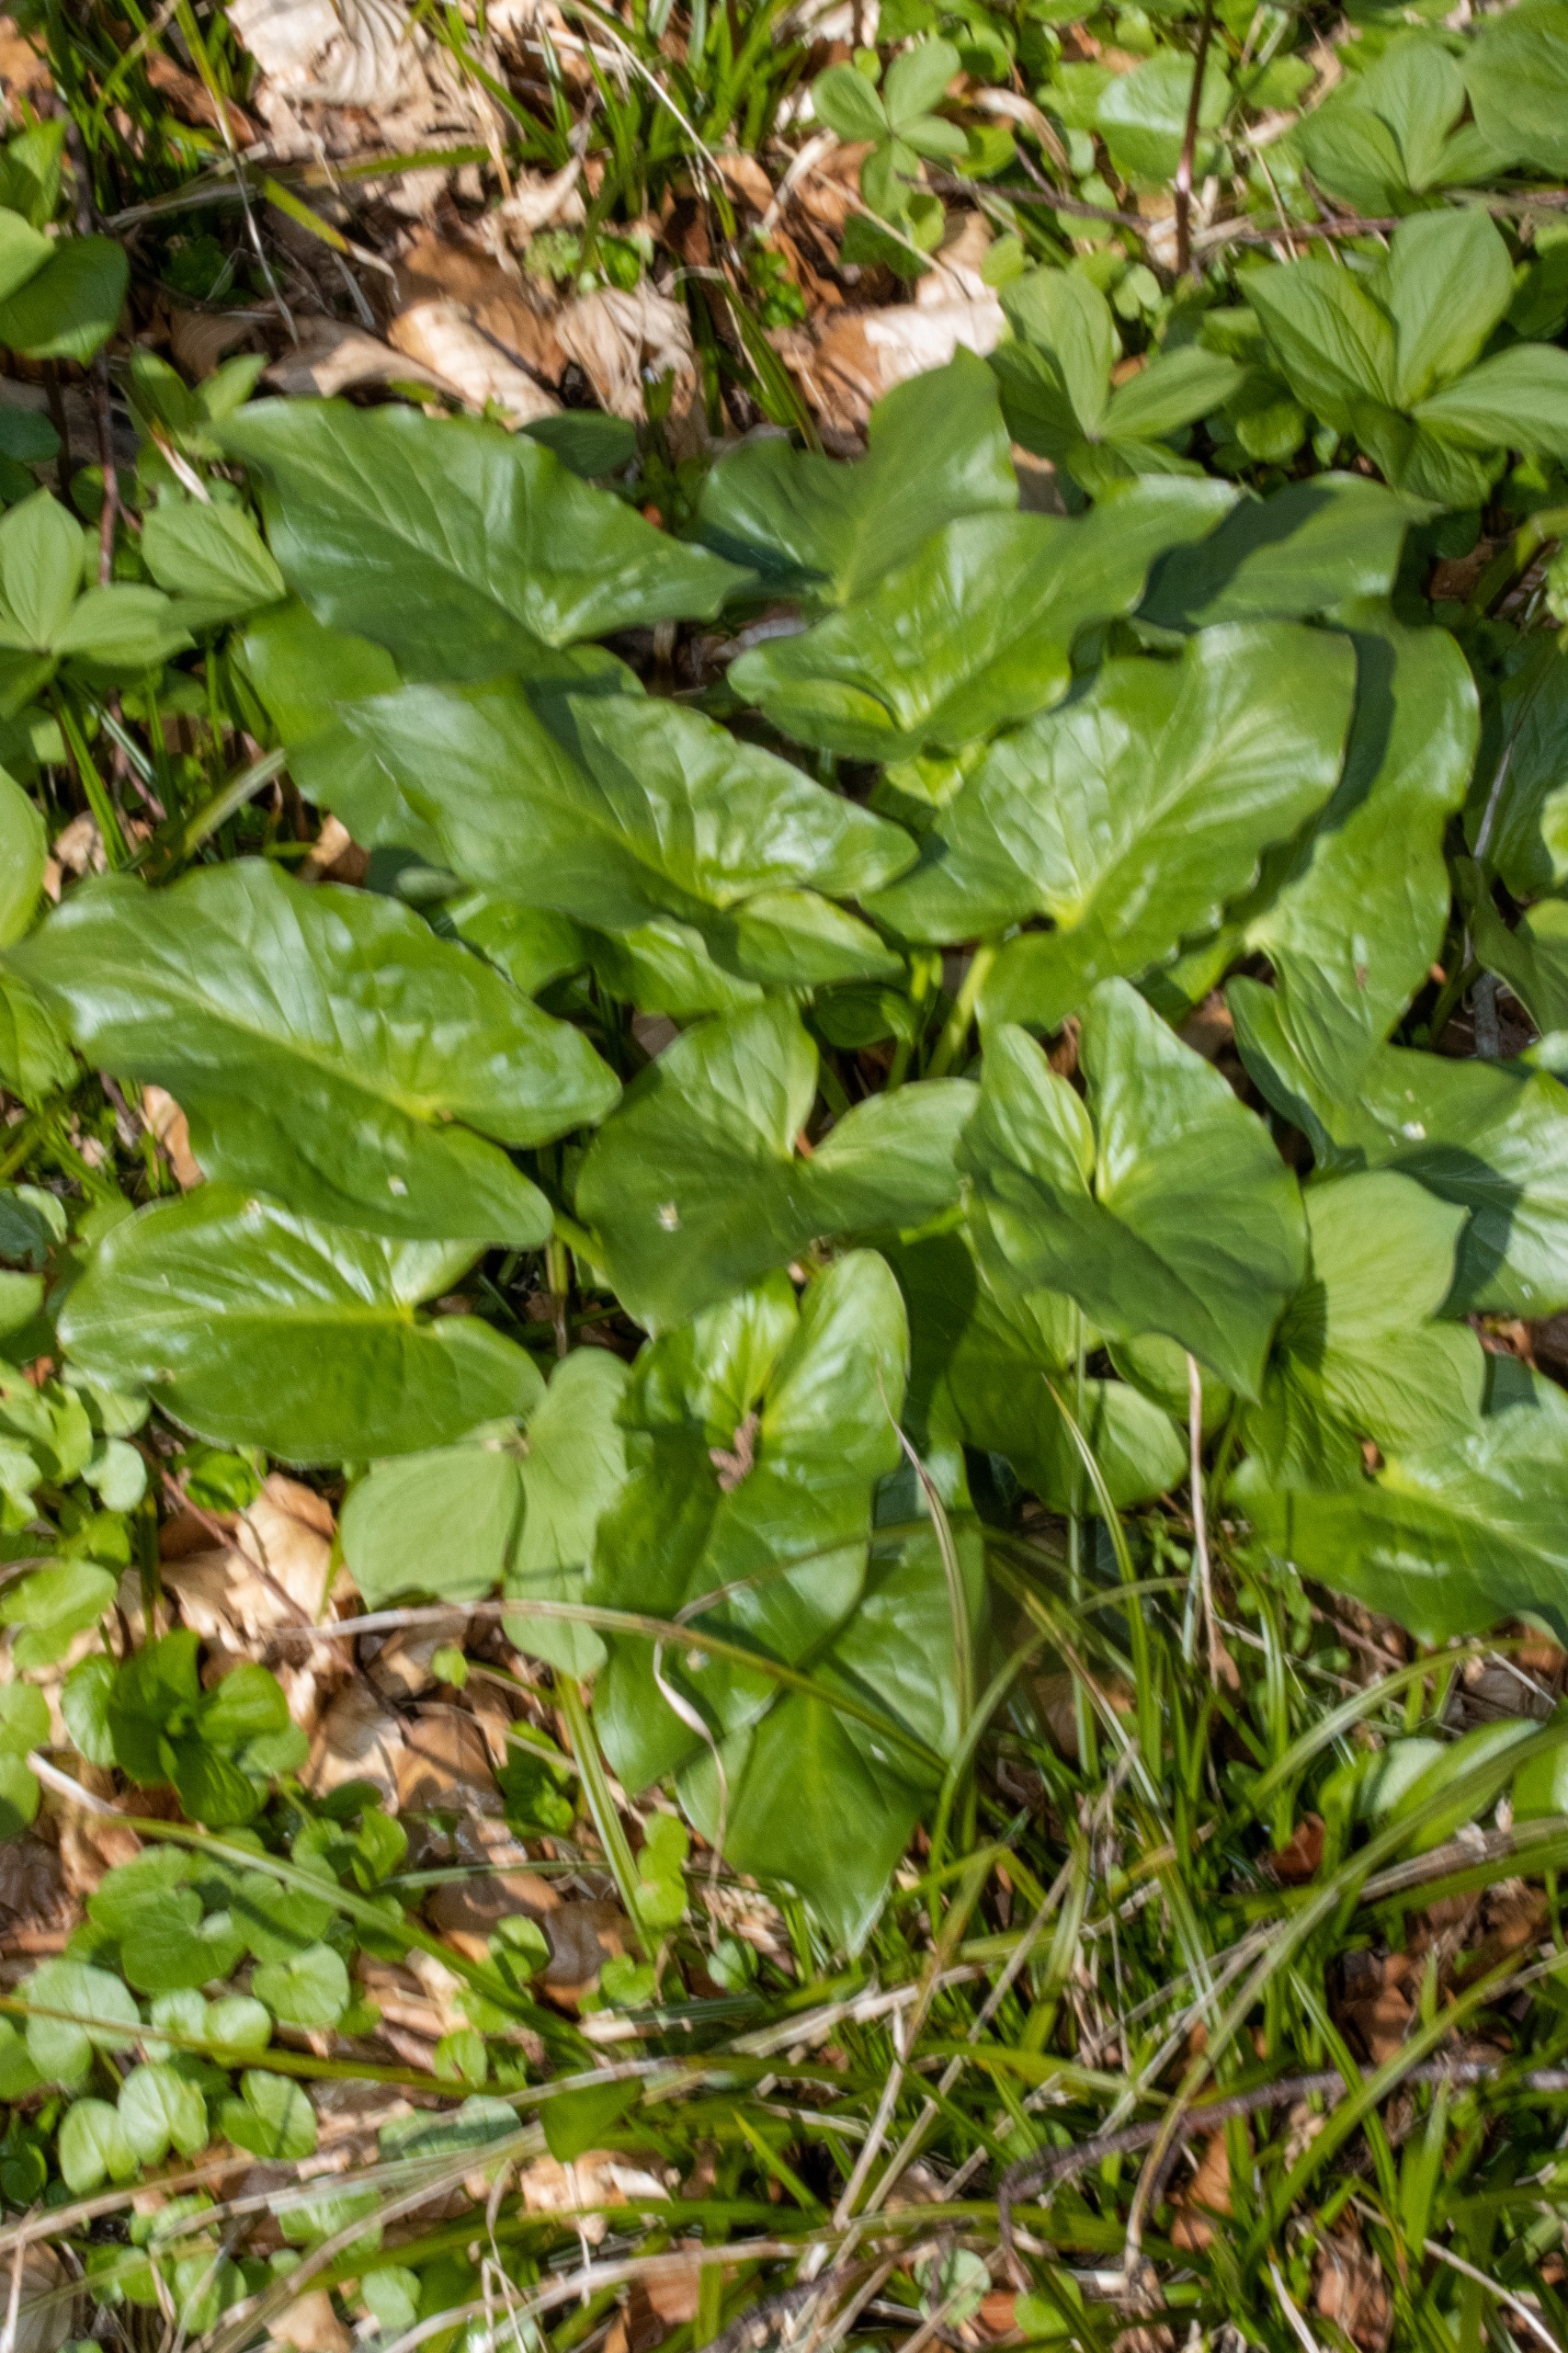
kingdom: Plantae
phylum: Tracheophyta
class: Liliopsida
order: Alismatales
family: Araceae
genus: Arum
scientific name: Arum
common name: Arumslægten
